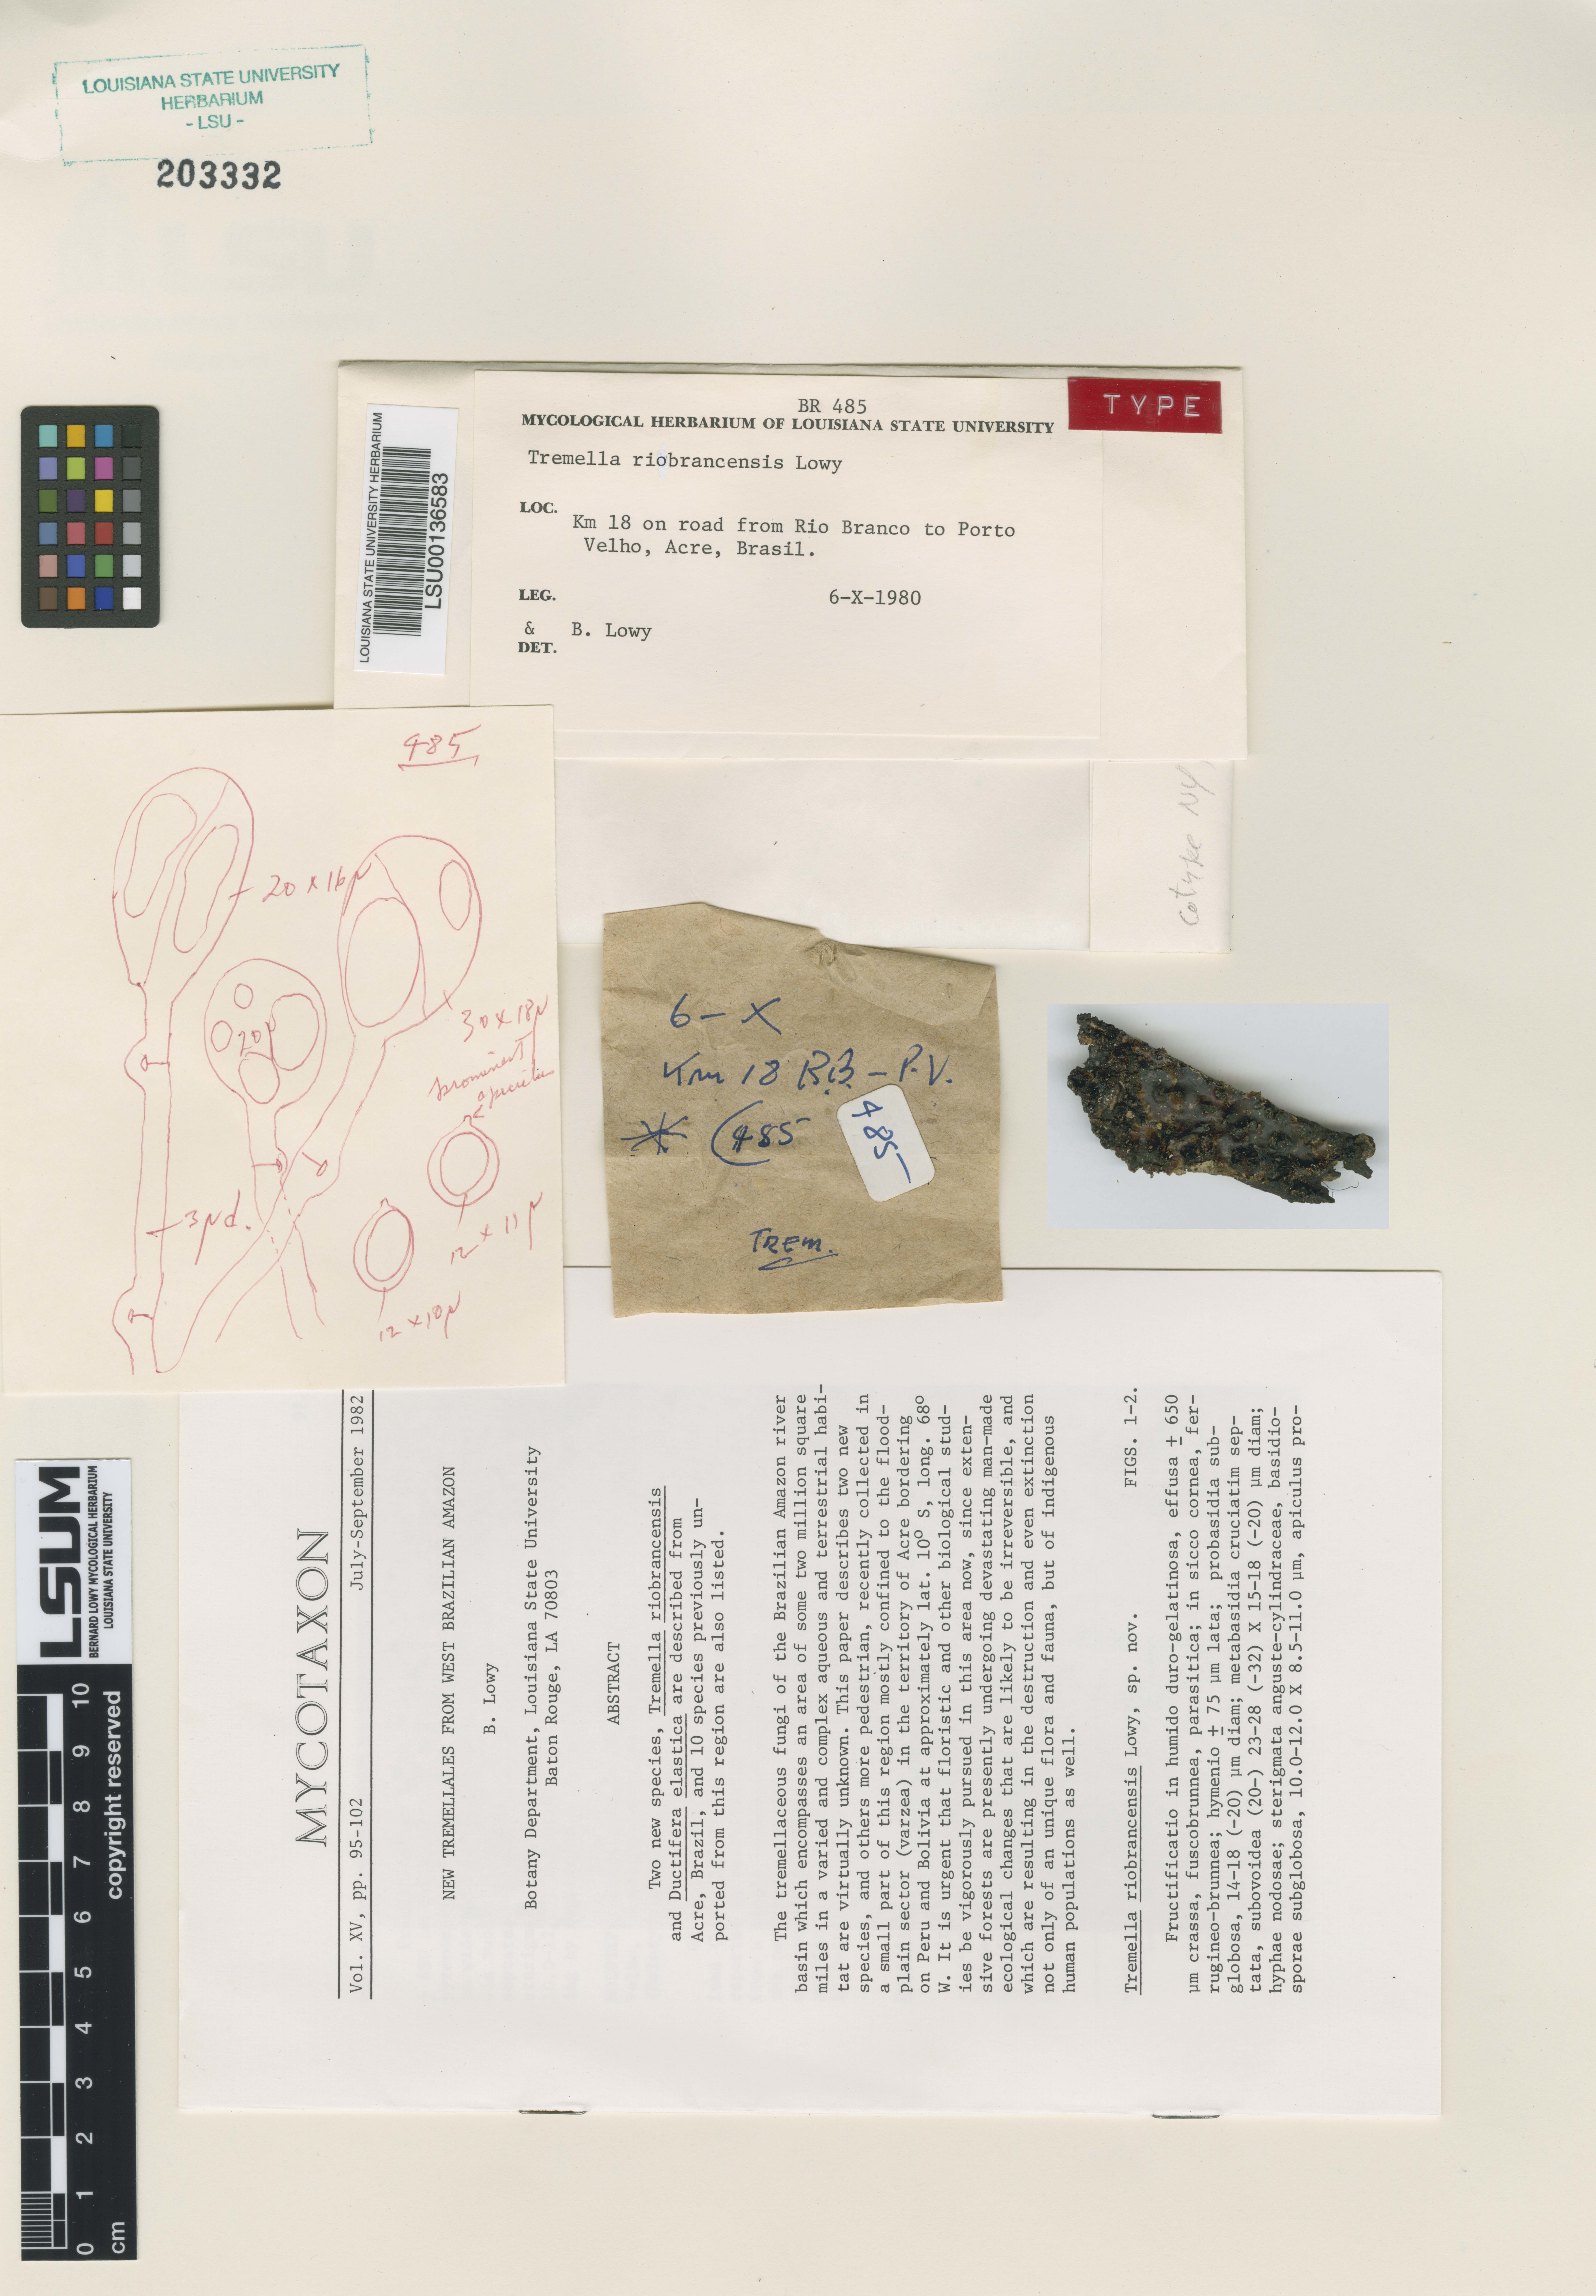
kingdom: Fungi
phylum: Basidiomycota
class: Tremellomycetes
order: Tremellales
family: Tremellaceae
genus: Tremella
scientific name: Tremella riobrancensis
